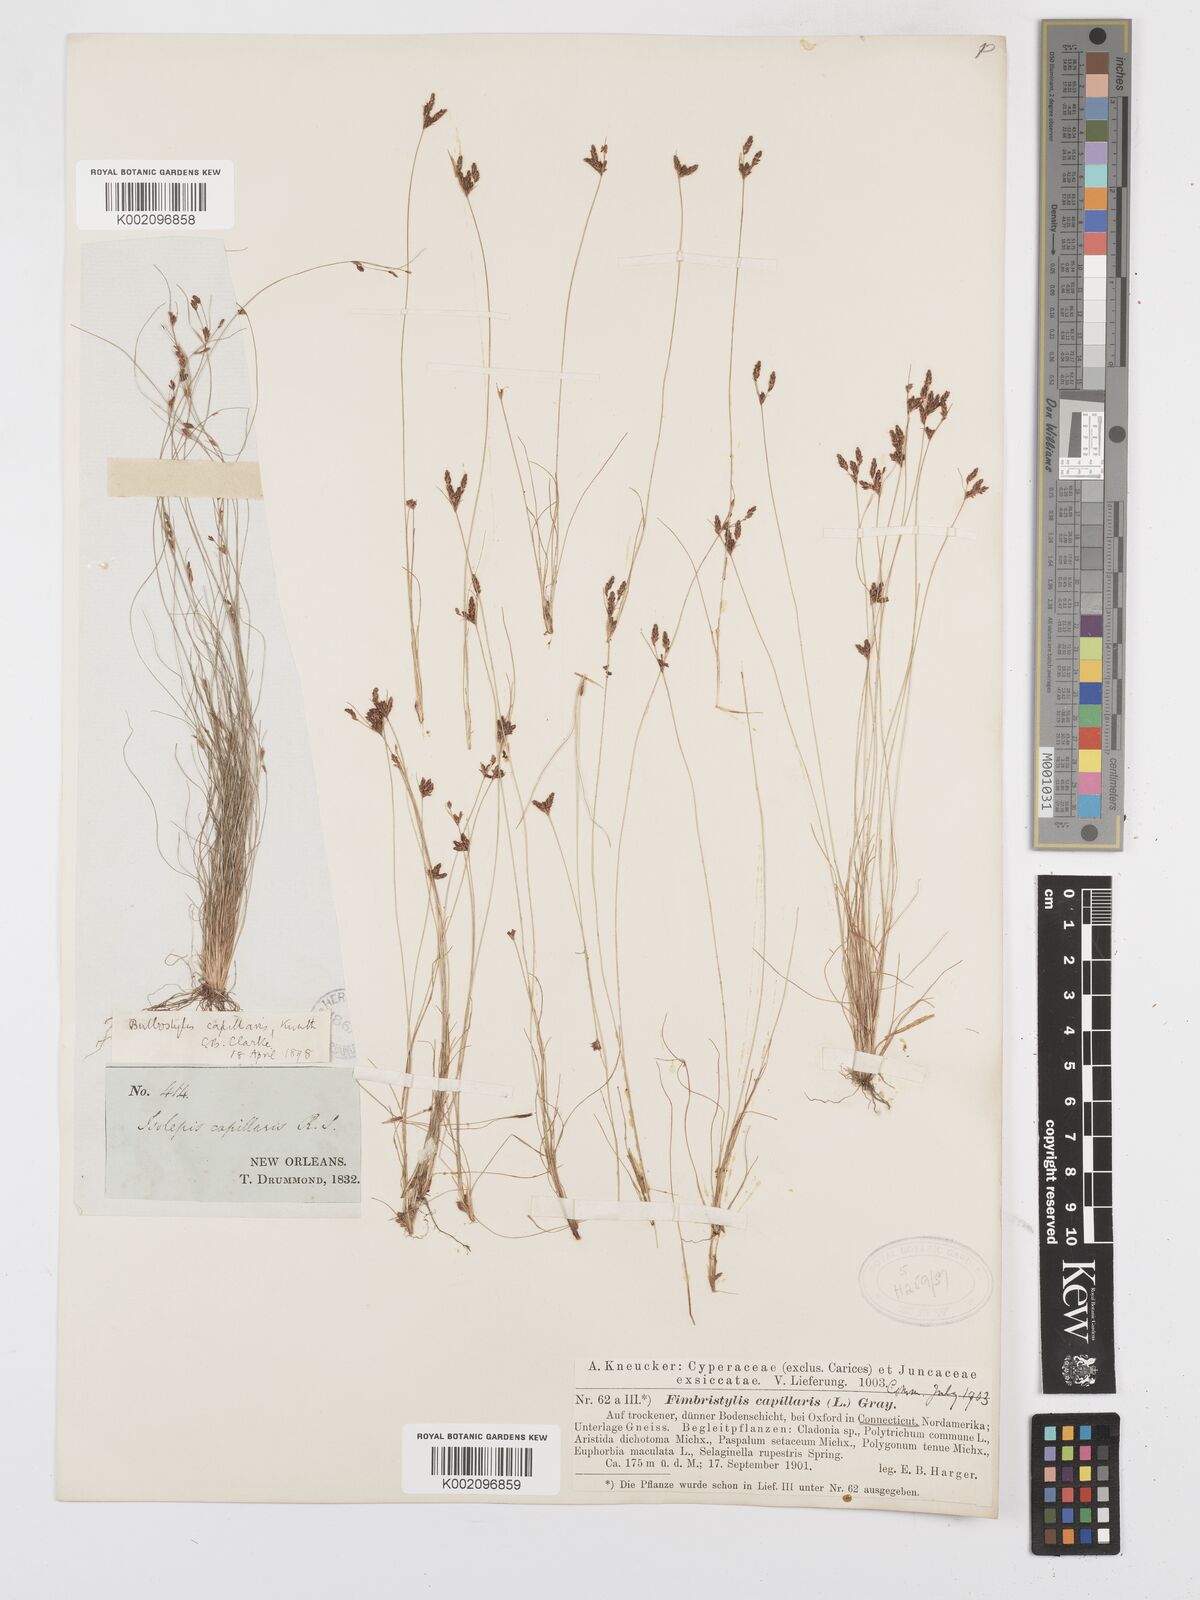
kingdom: Plantae
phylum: Tracheophyta
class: Liliopsida
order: Poales
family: Cyperaceae
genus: Bulbostylis
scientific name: Bulbostylis capillaris
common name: Densetuft hairsedge
